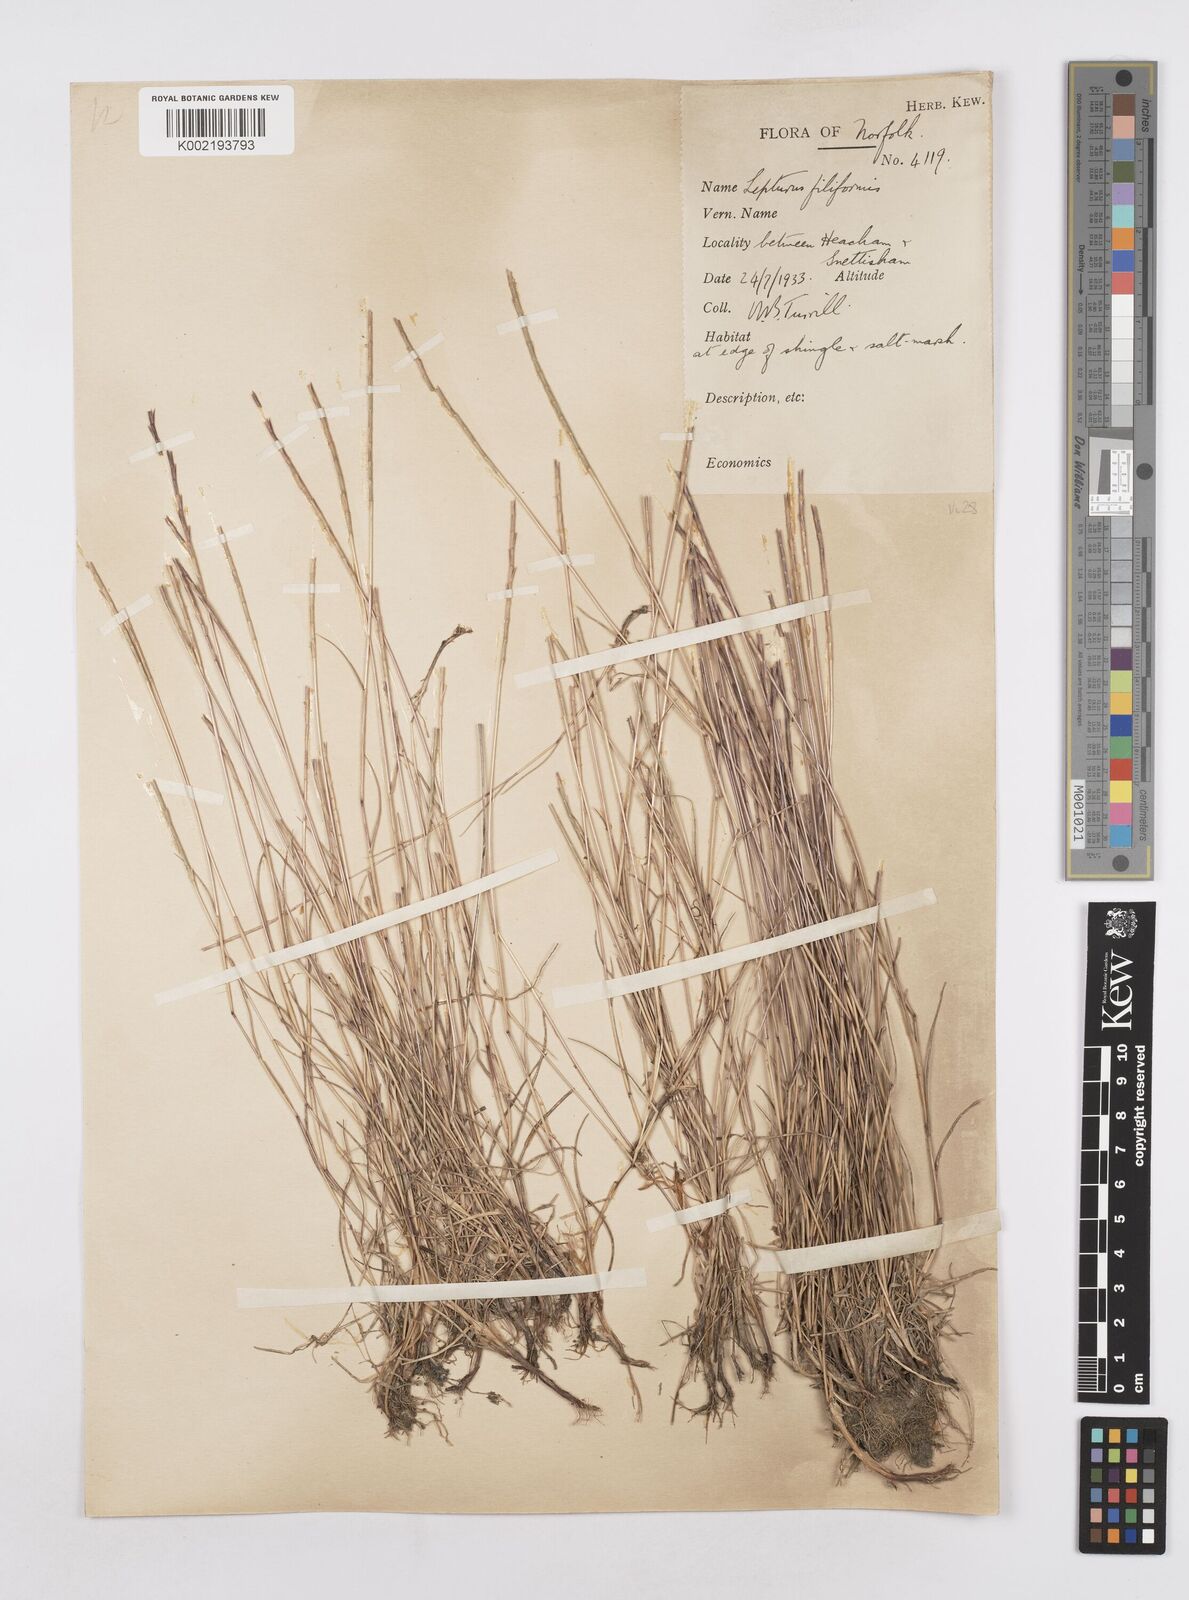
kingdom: Plantae
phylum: Tracheophyta
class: Liliopsida
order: Poales
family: Poaceae
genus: Parapholis
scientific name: Parapholis
